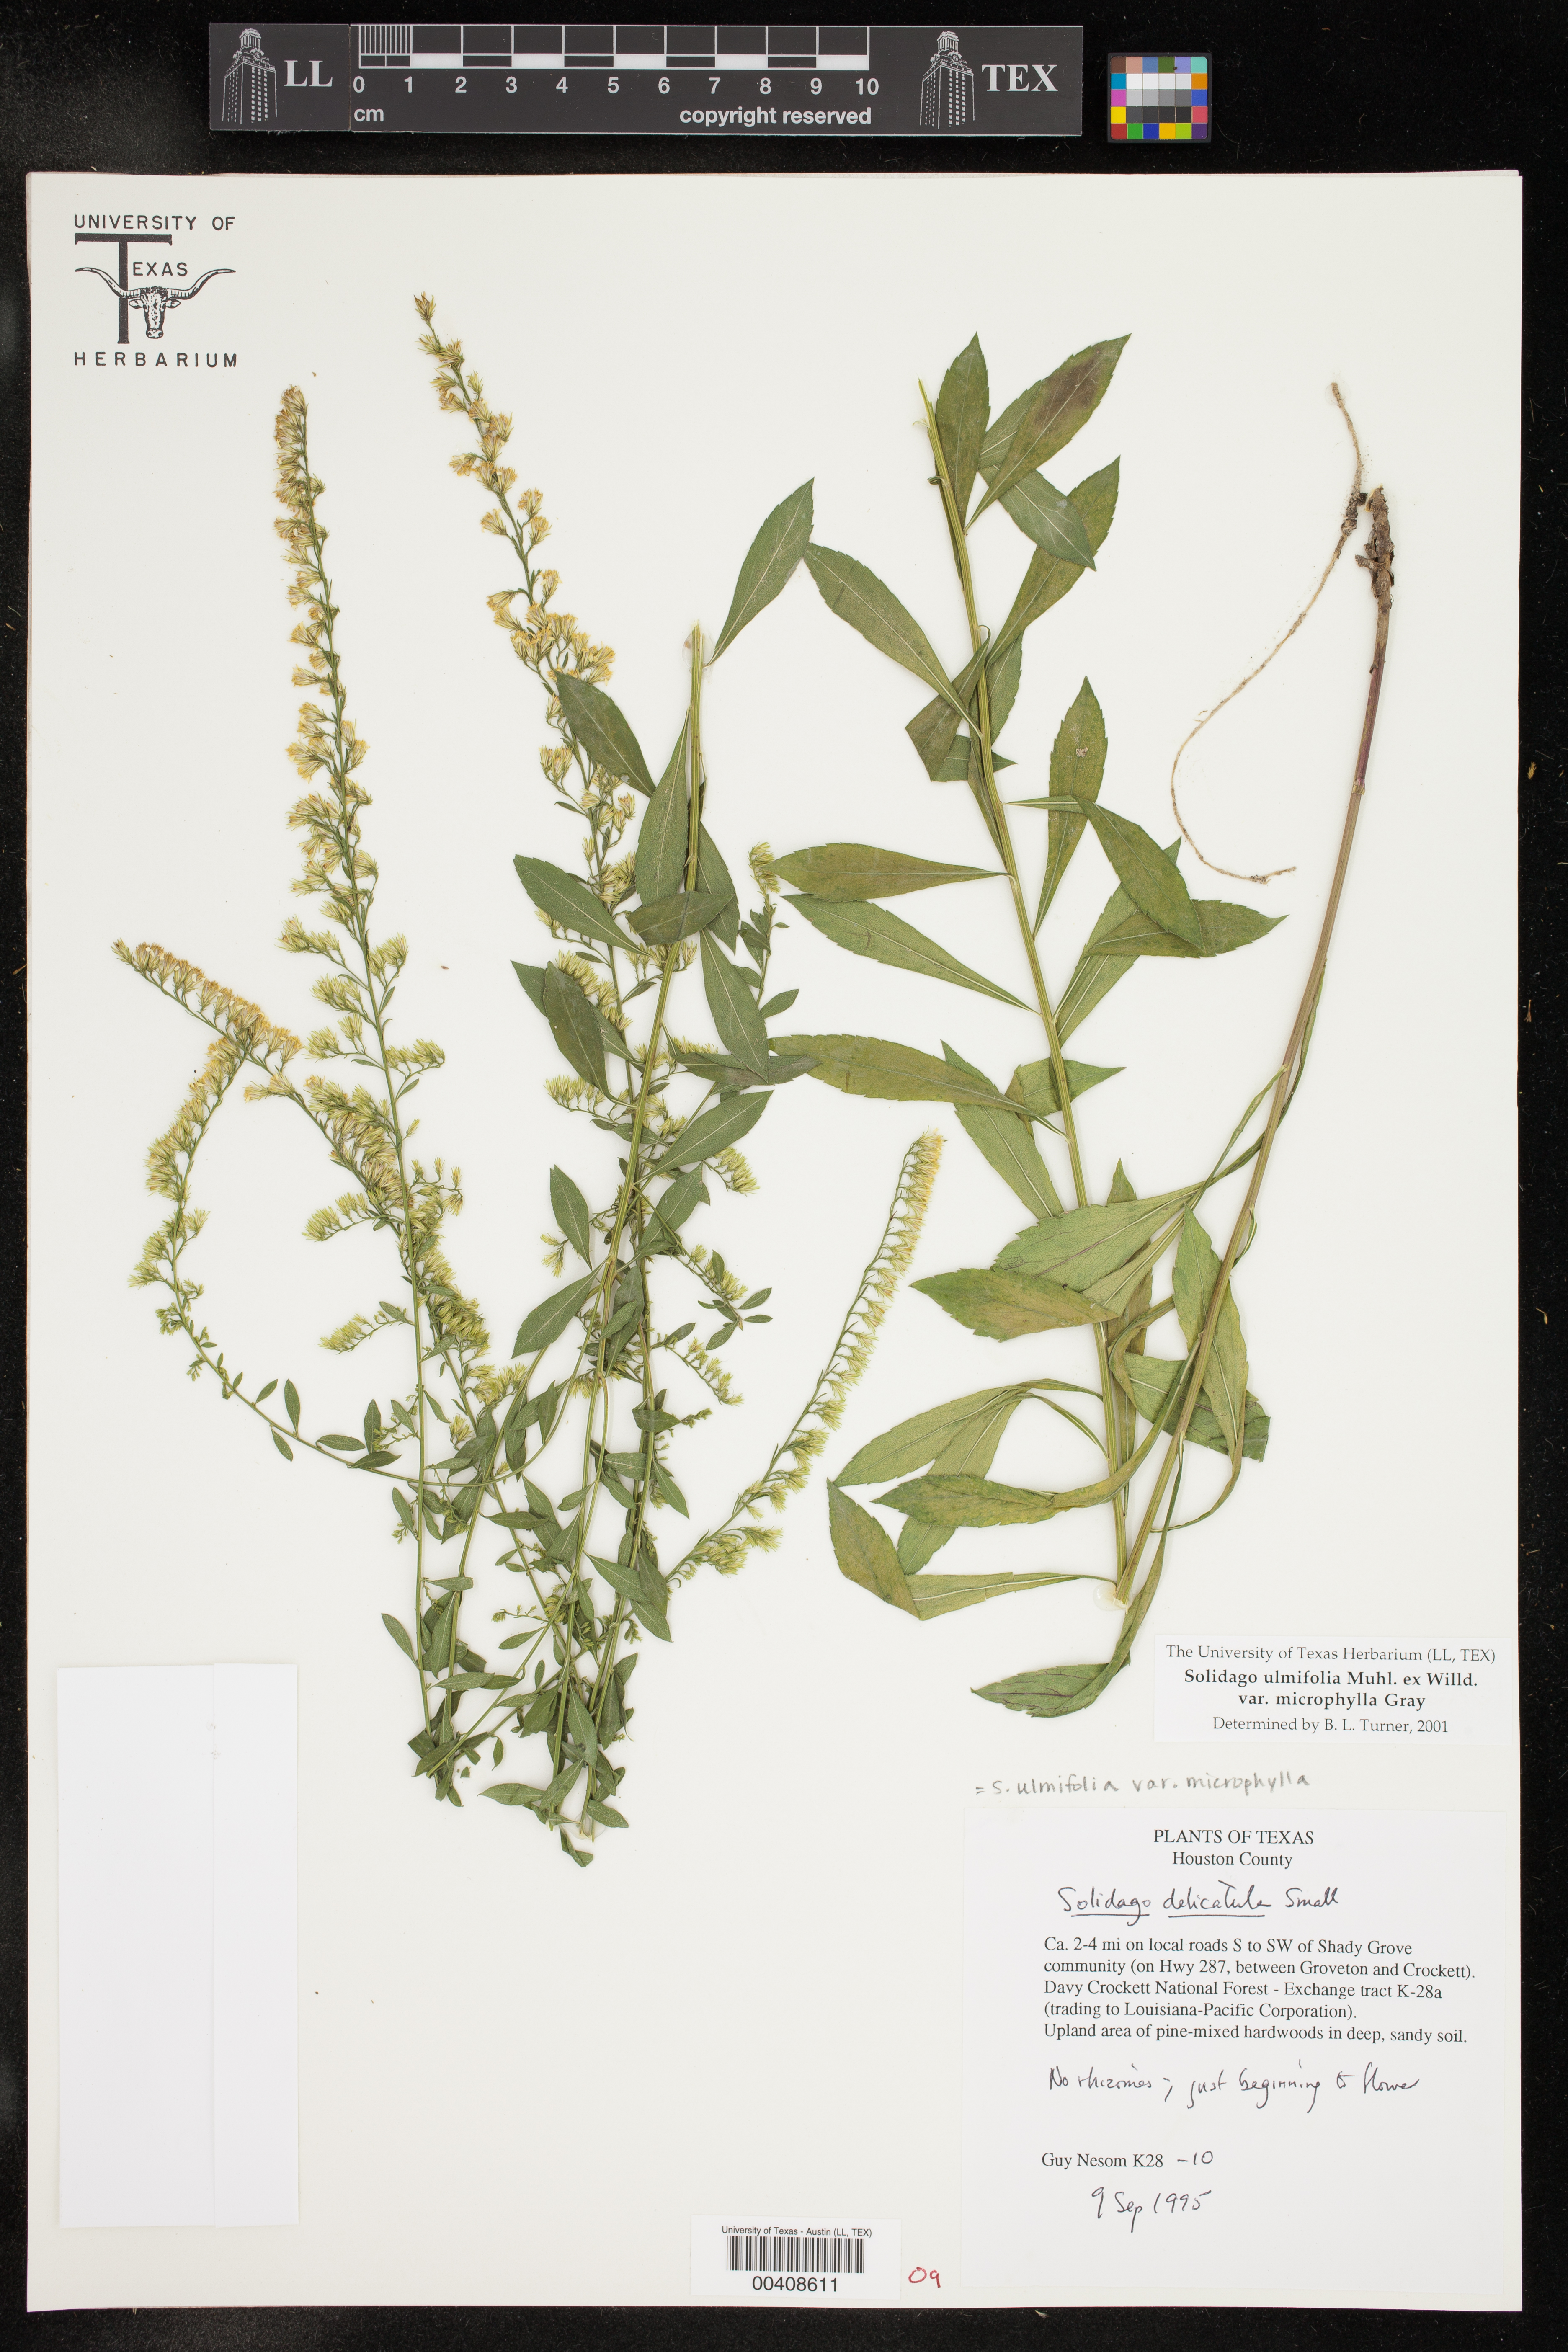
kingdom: Plantae
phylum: Tracheophyta
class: Magnoliopsida
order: Asterales
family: Asteraceae
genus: Solidago
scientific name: Solidago delicatula
